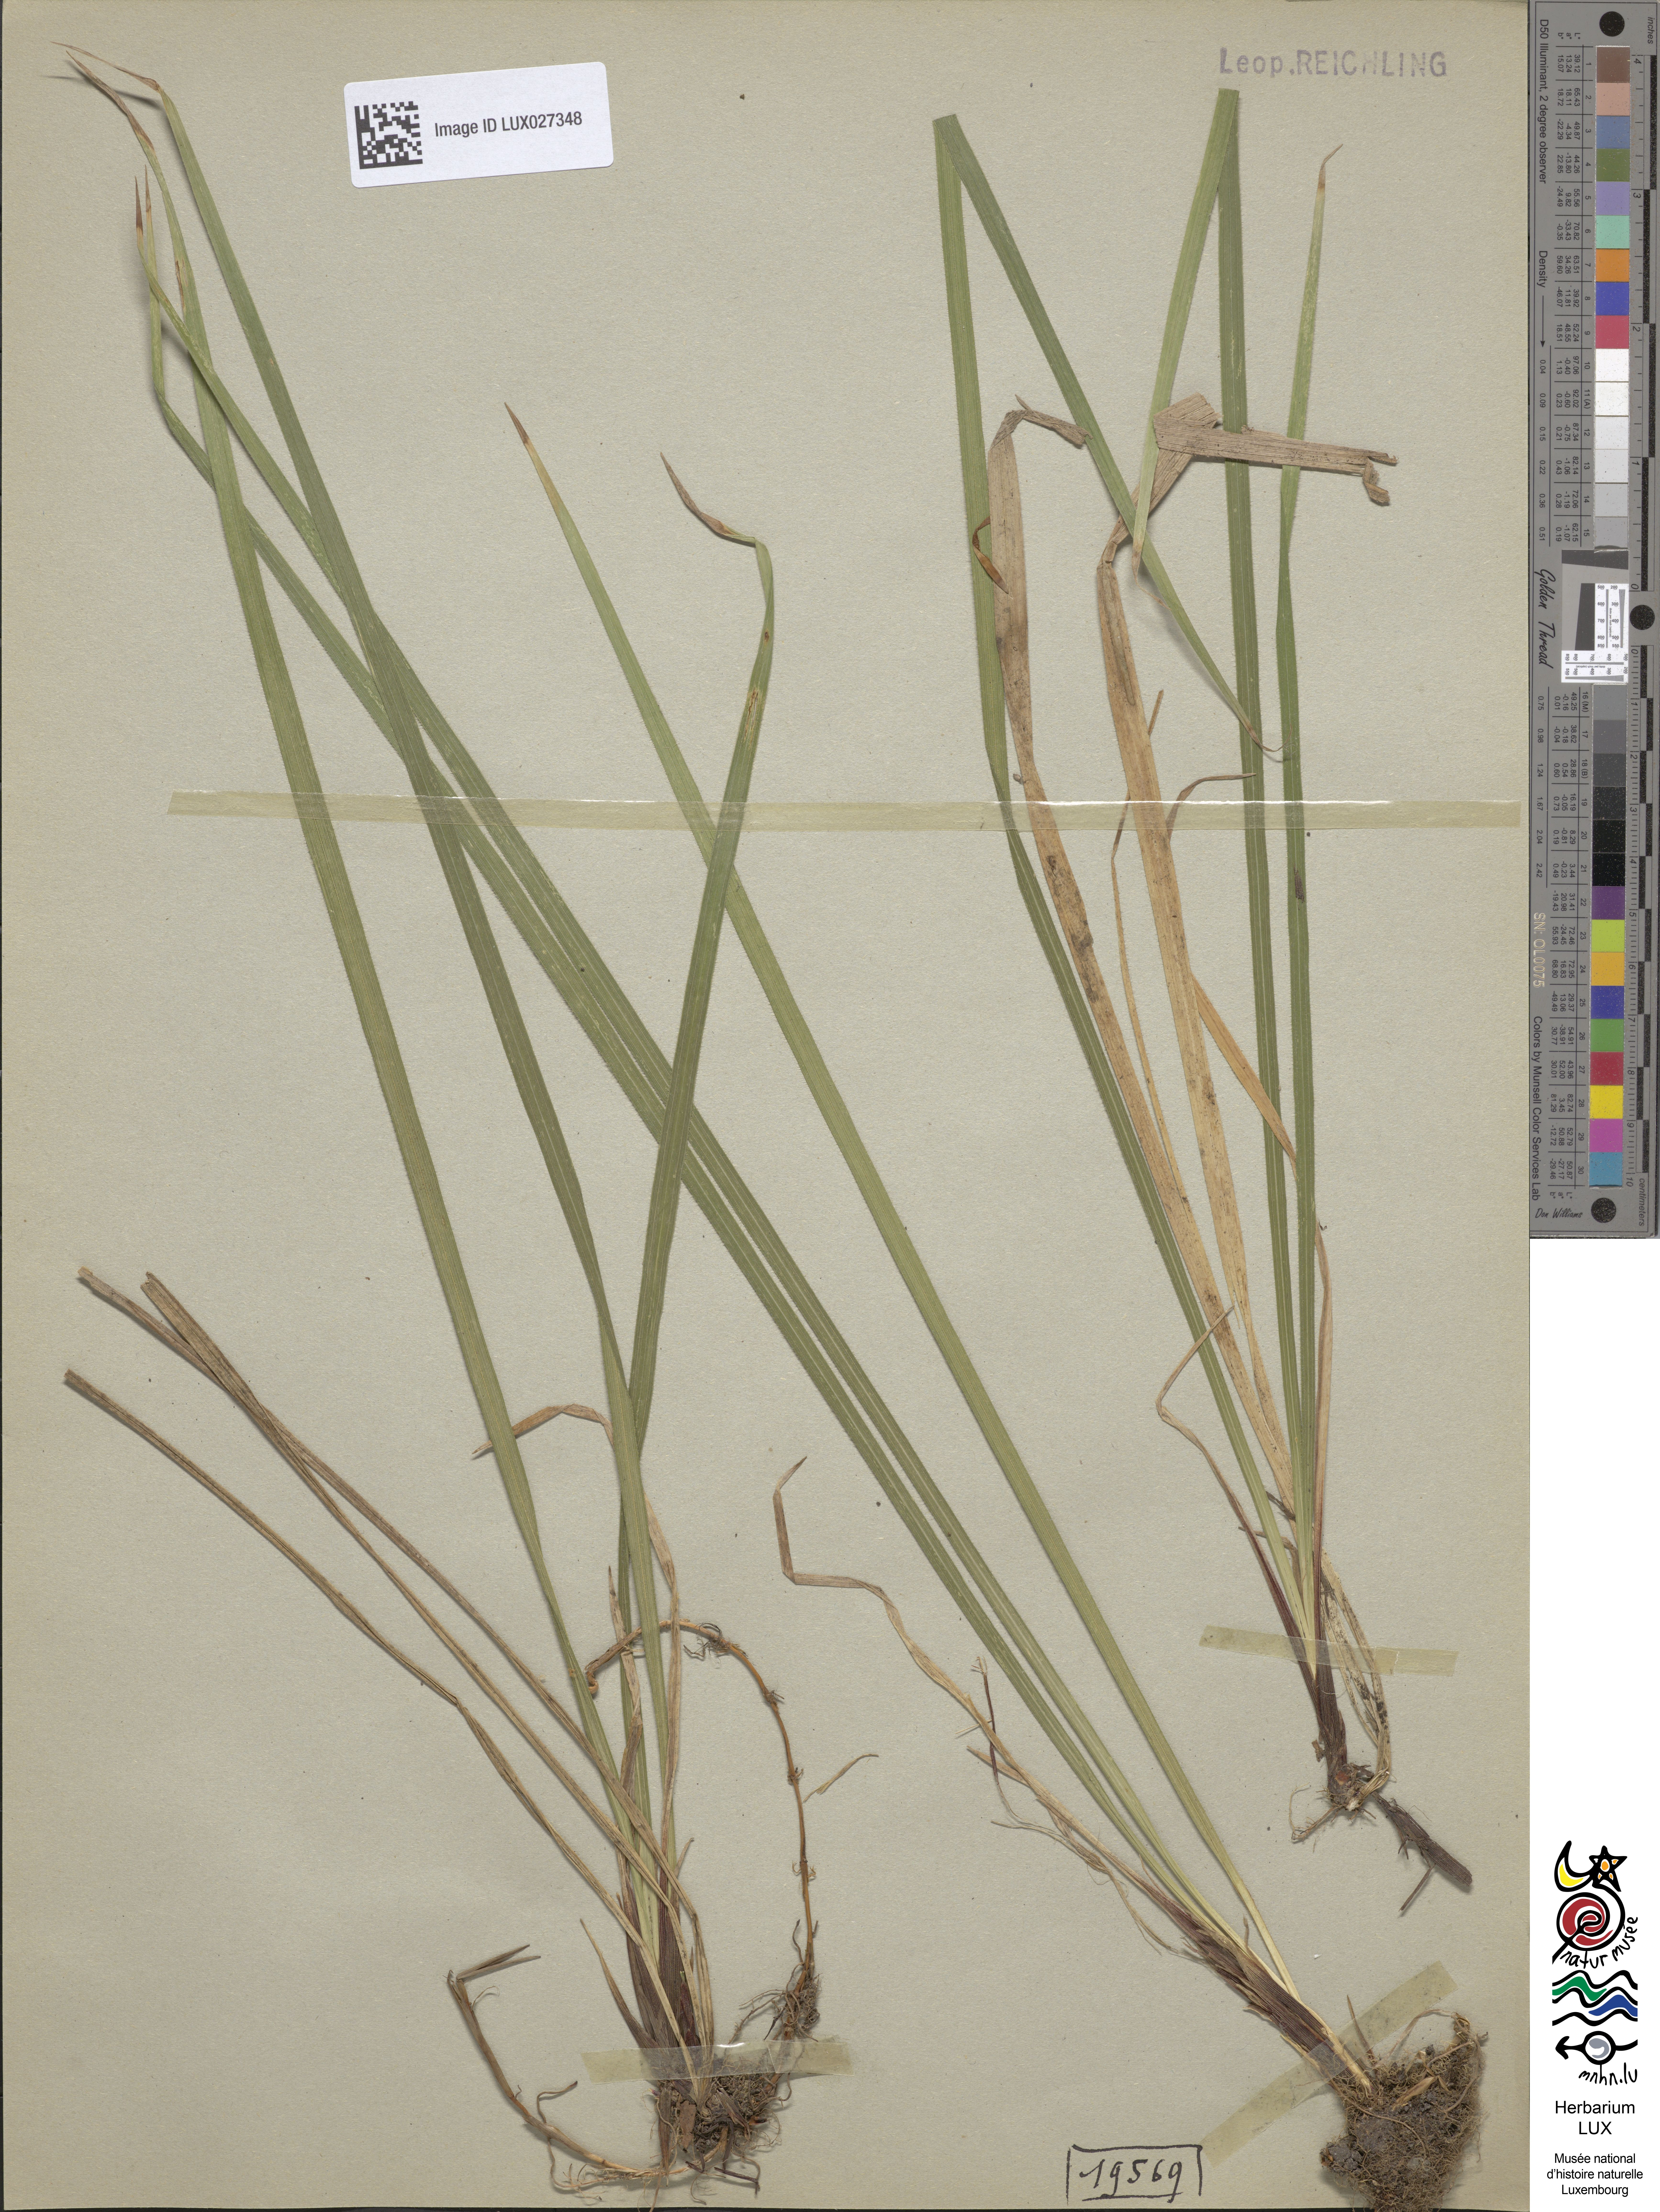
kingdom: Plantae
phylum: Tracheophyta
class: Liliopsida
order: Poales
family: Cyperaceae
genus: Carex
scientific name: Carex pilosa
